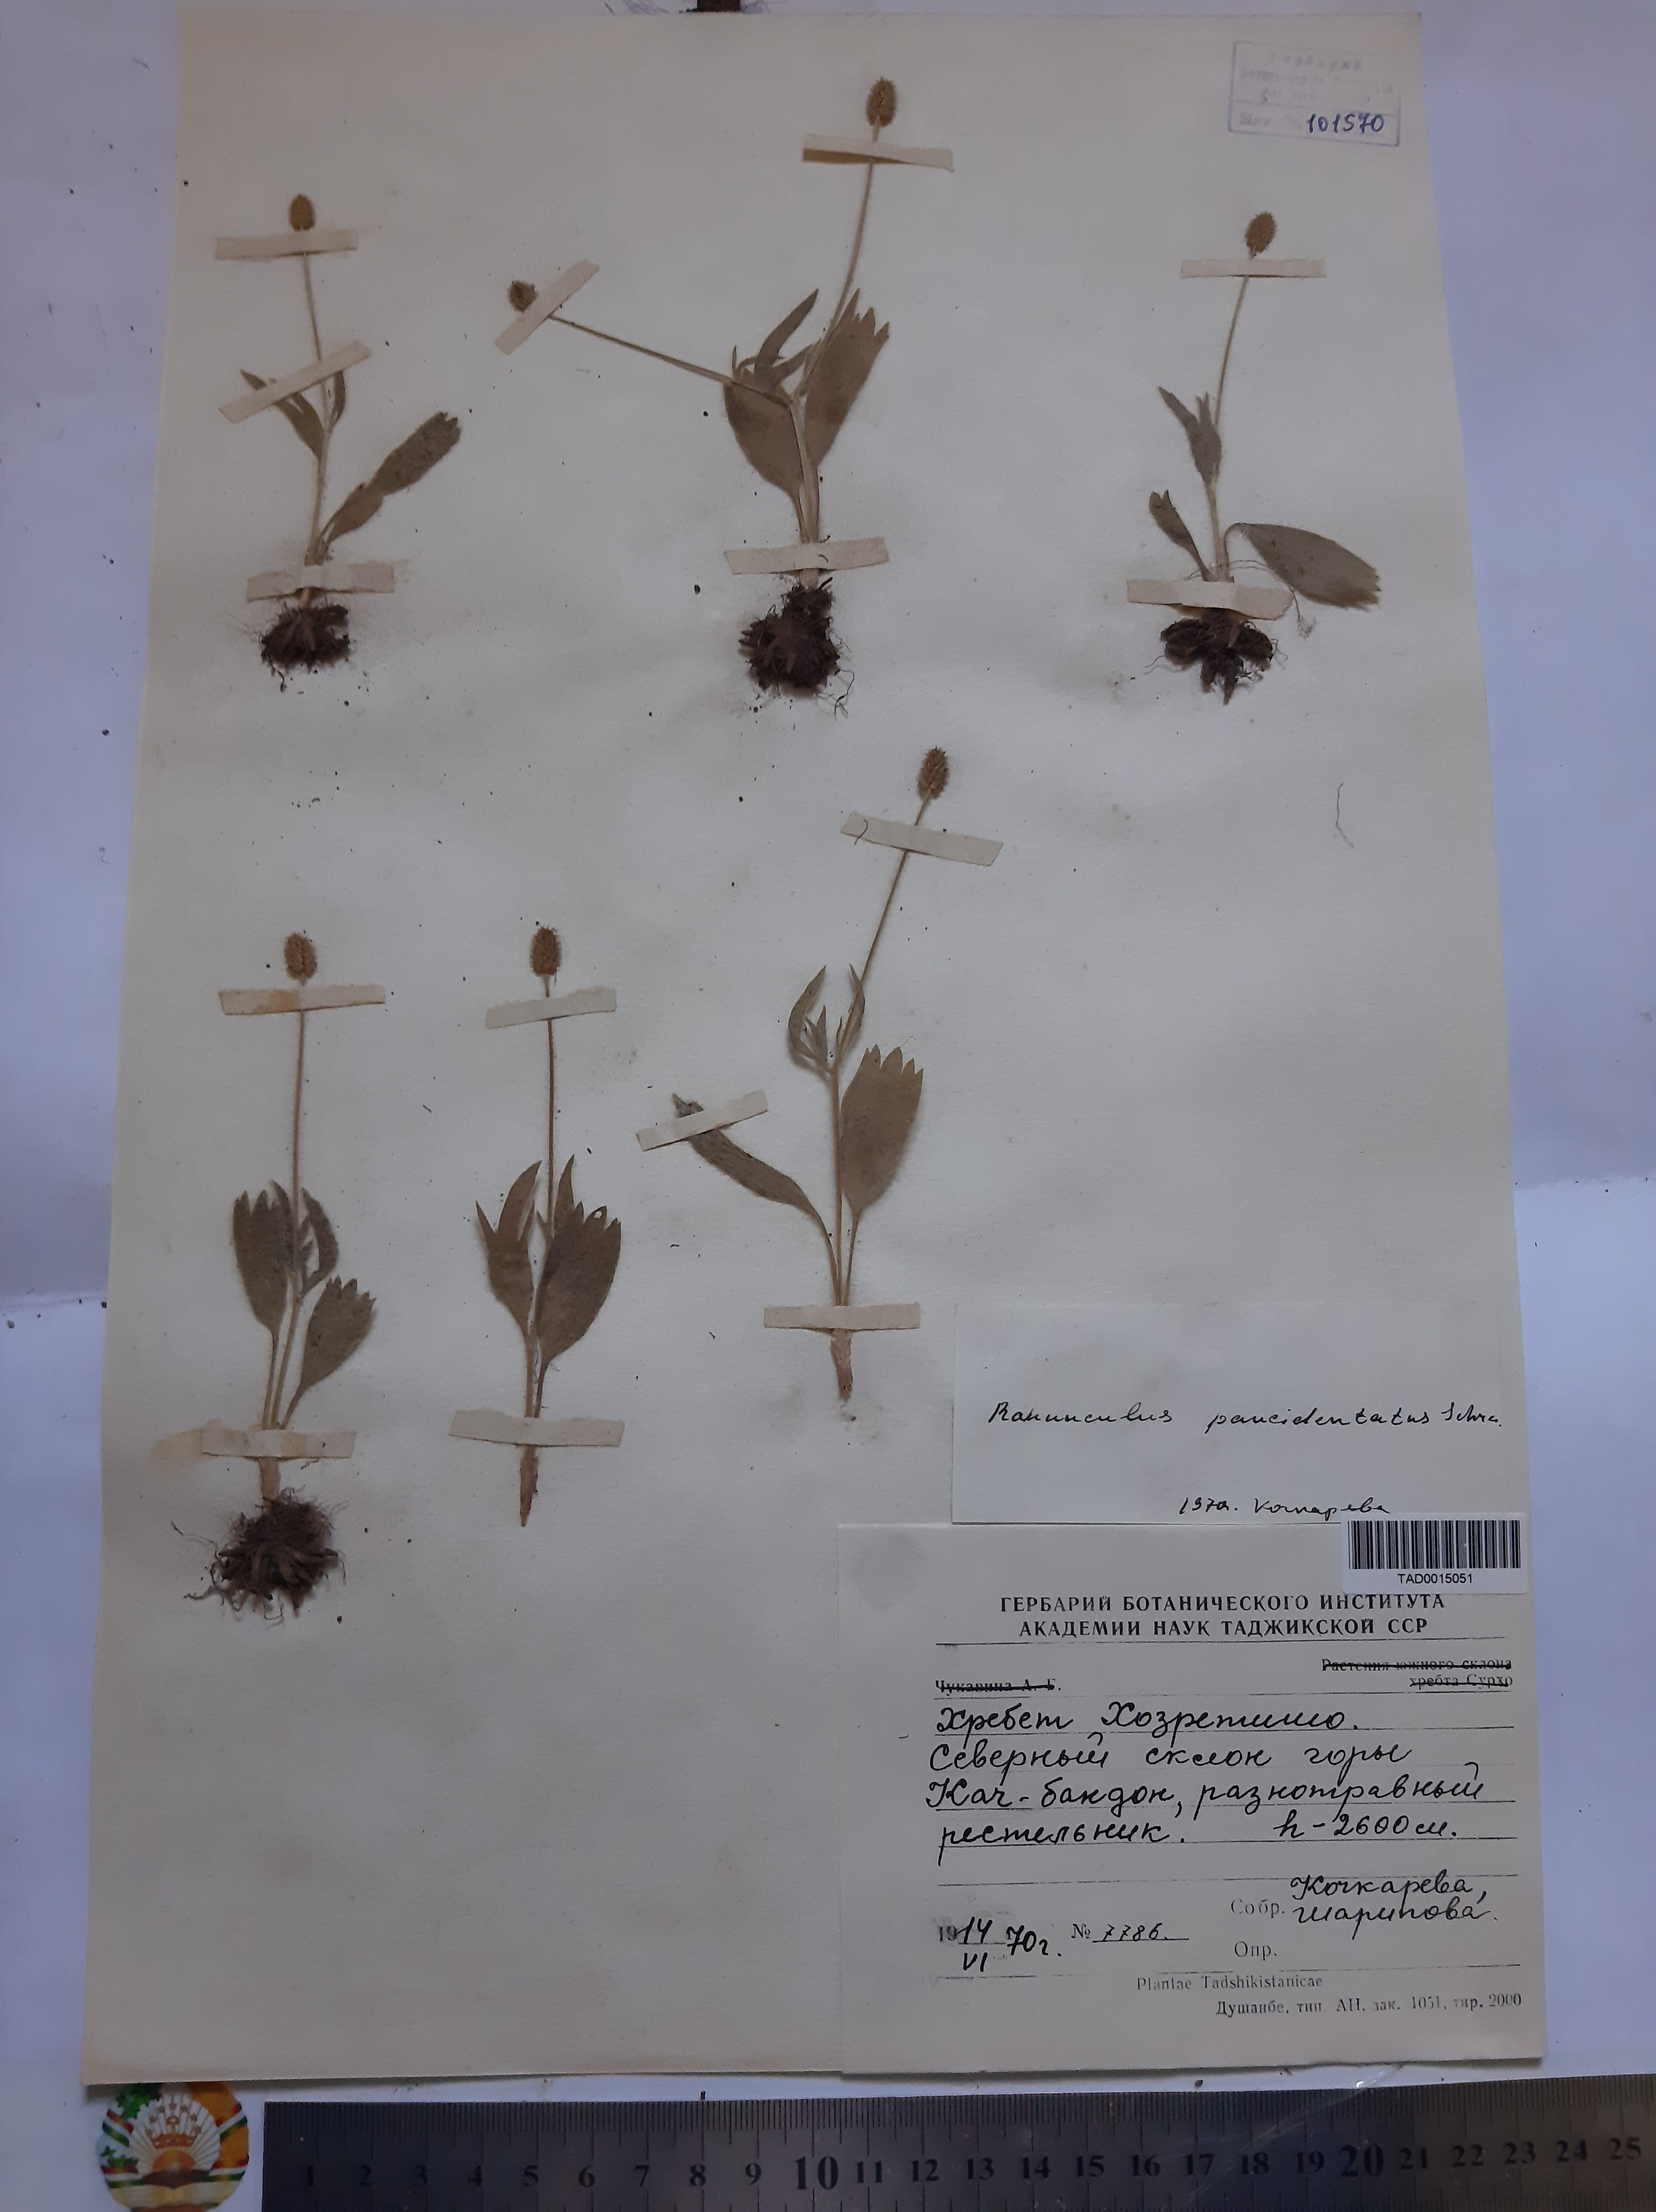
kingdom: Plantae
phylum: Tracheophyta
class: Magnoliopsida
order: Ranunculales
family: Ranunculaceae
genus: Ranunculus
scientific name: Ranunculus paucidentatus
